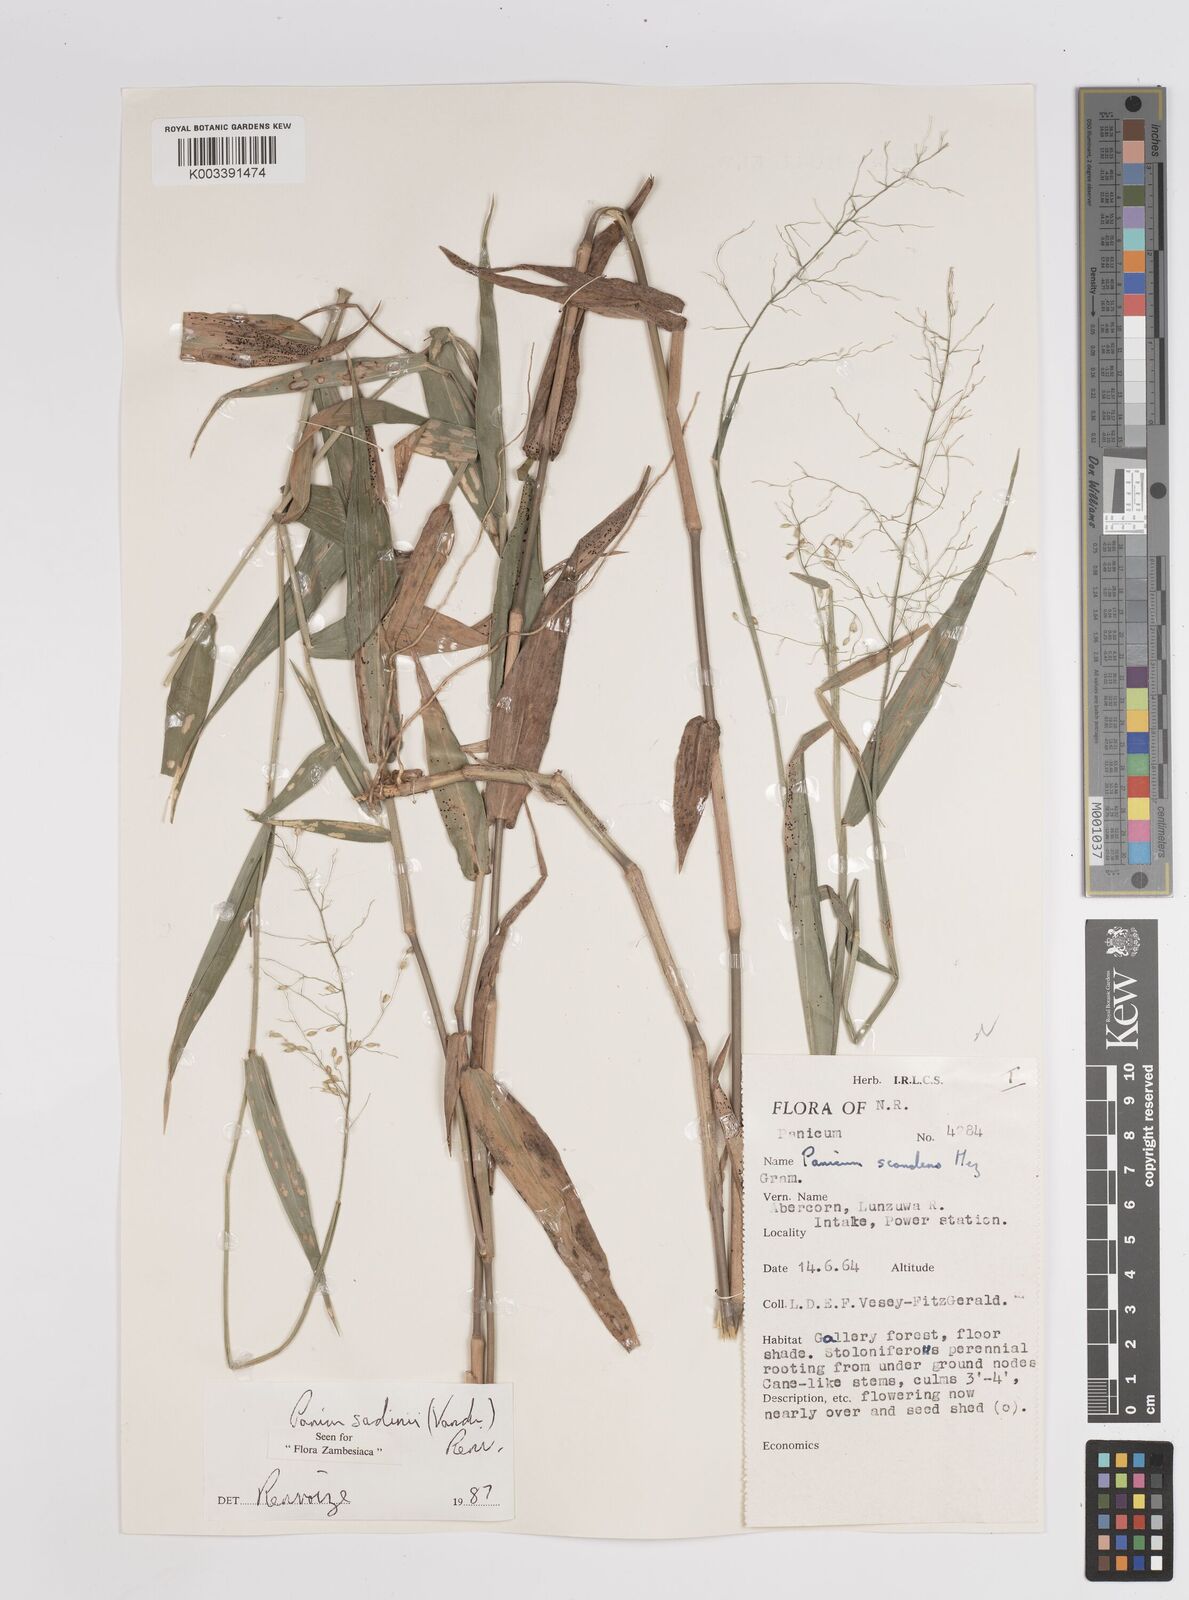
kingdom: Plantae
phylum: Tracheophyta
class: Liliopsida
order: Poales
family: Poaceae
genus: Adenochloa
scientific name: Adenochloa sadinii
